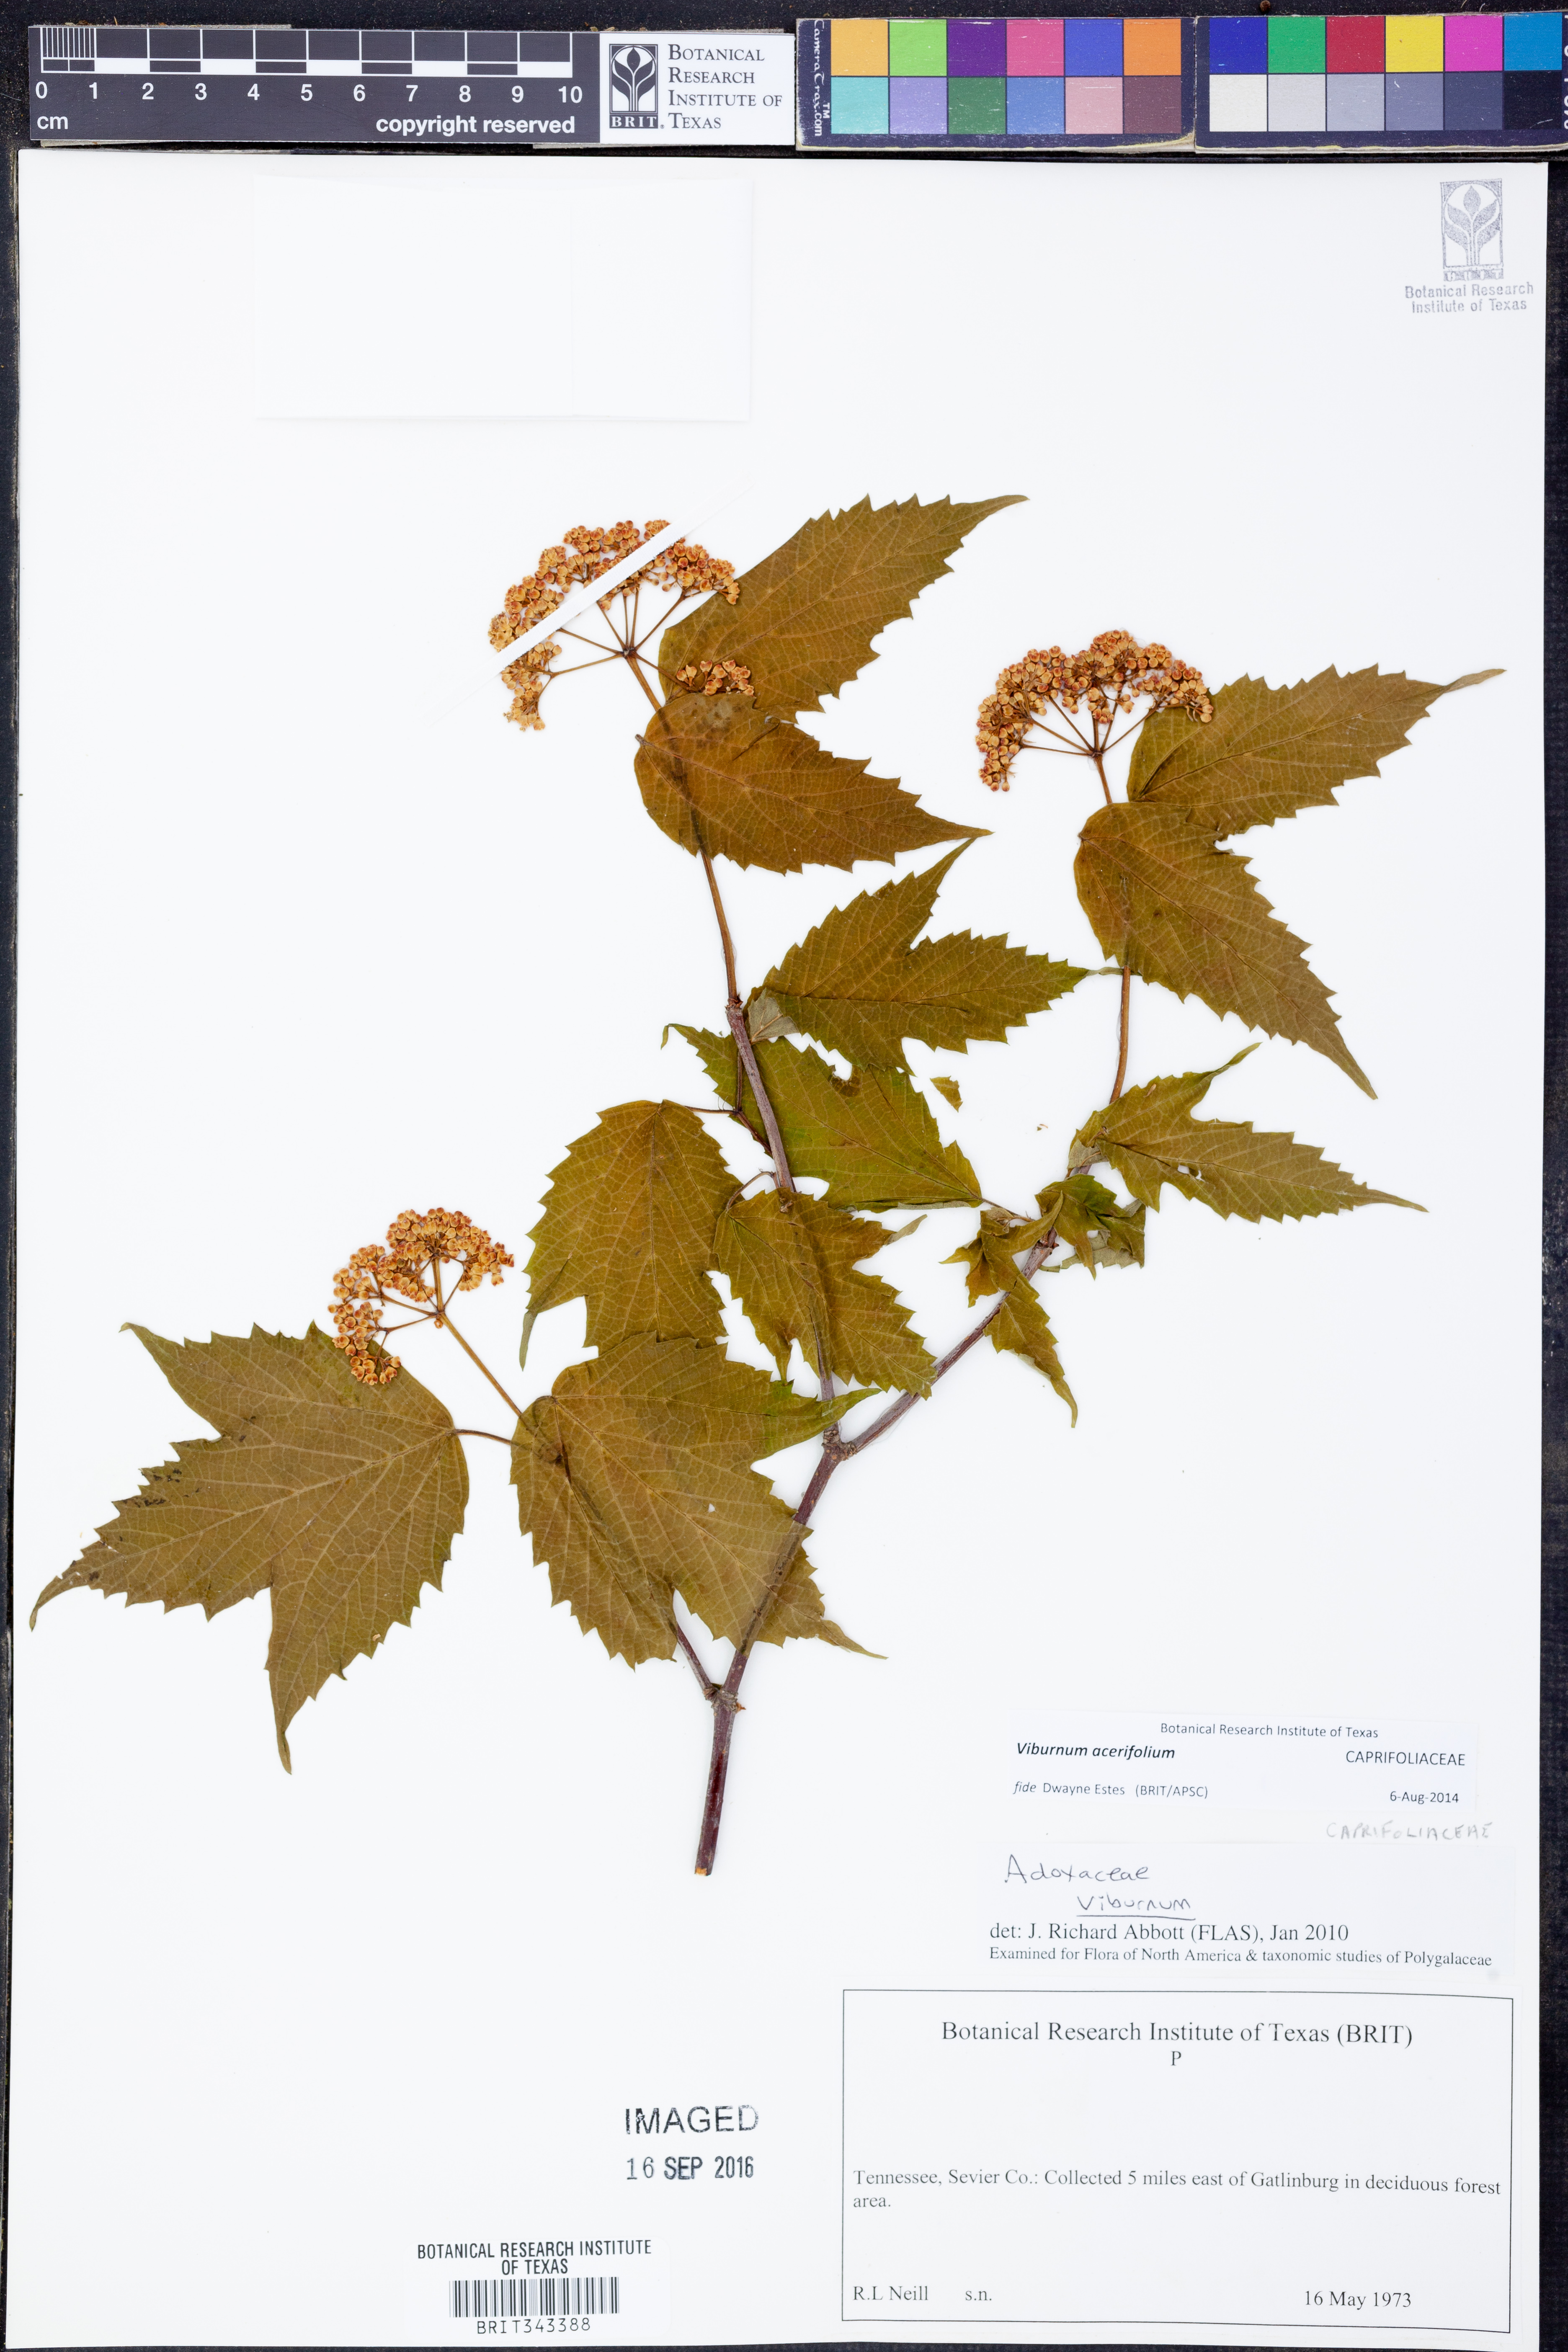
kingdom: Plantae
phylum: Tracheophyta
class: Magnoliopsida
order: Dipsacales
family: Viburnaceae
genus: Viburnum
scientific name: Viburnum acerifolium
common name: Dockmackie
